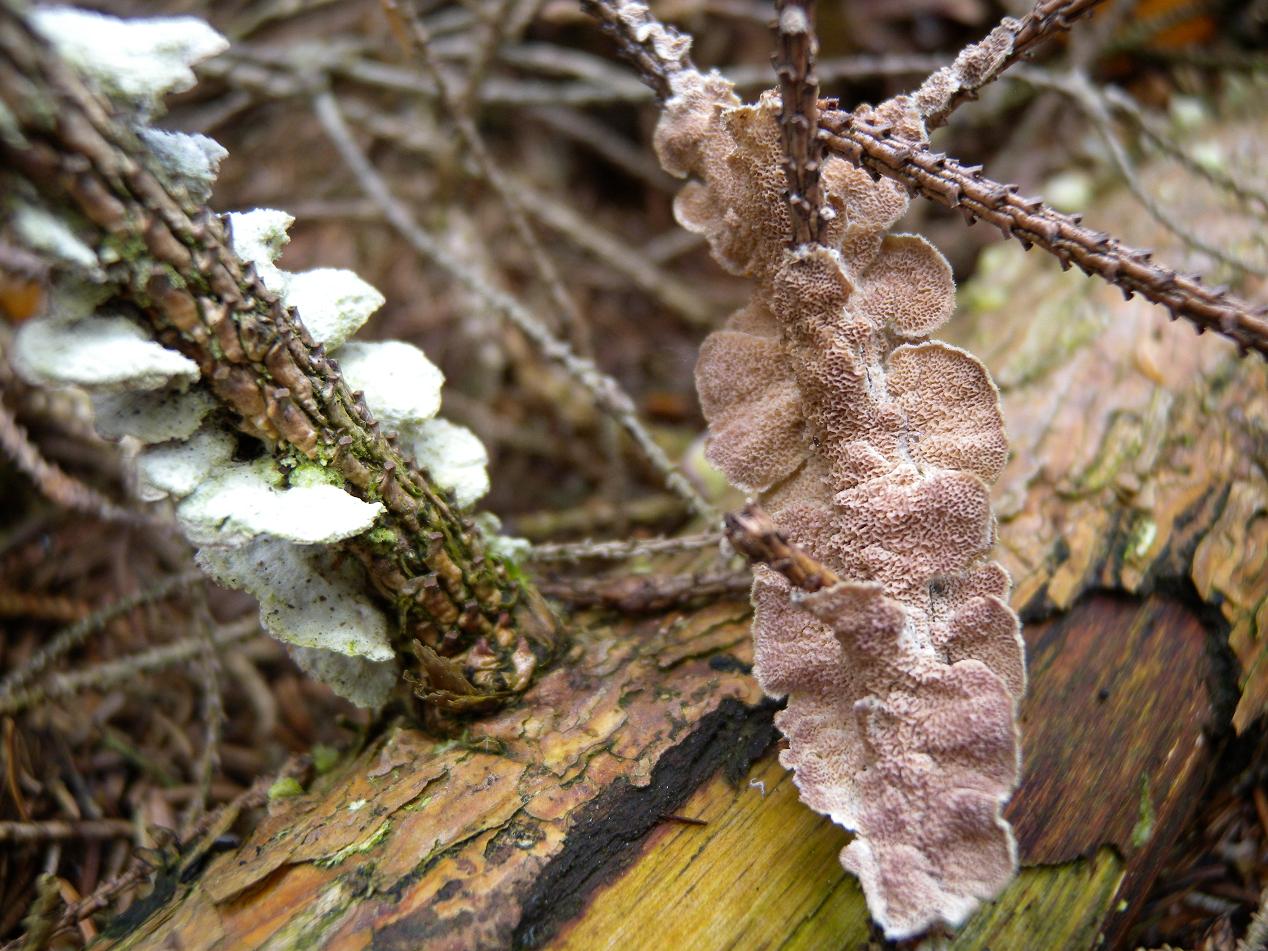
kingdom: Fungi
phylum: Basidiomycota
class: Agaricomycetes
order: Hymenochaetales
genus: Trichaptum
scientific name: Trichaptum abietinum
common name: almindelig violporesvamp
